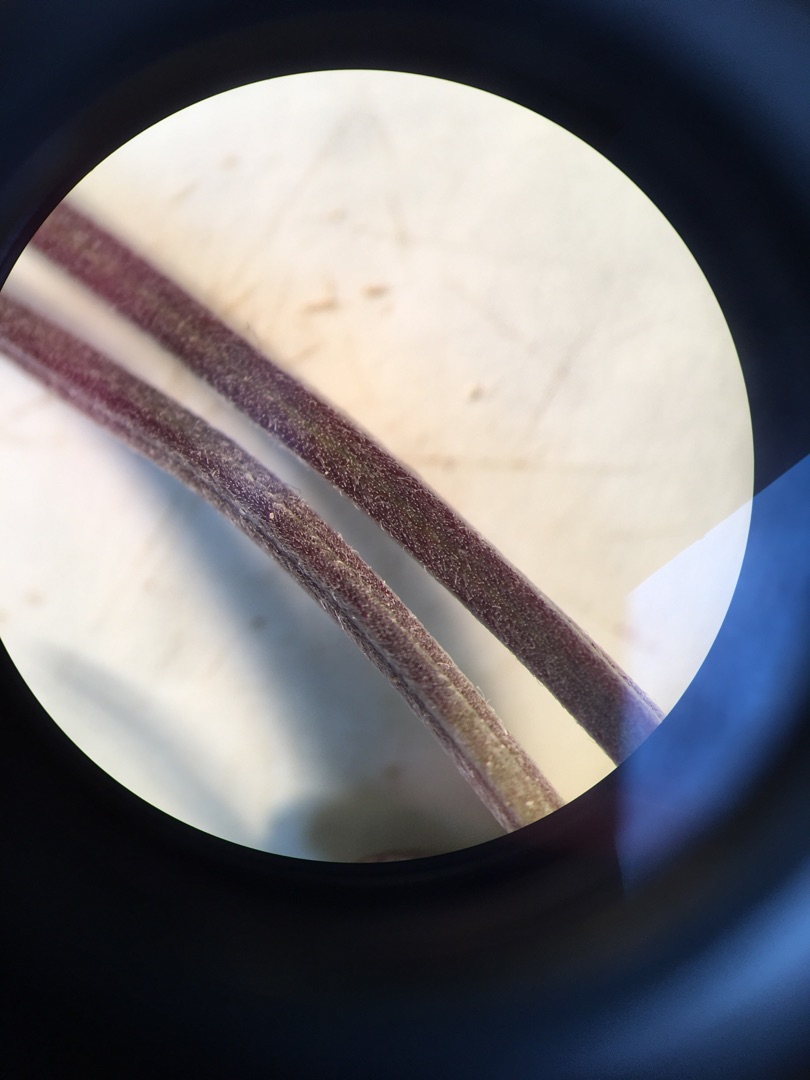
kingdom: Plantae
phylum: Tracheophyta
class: Magnoliopsida
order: Myrtales
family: Onagraceae
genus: Epilobium
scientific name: Epilobium
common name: Dueurtslægten
